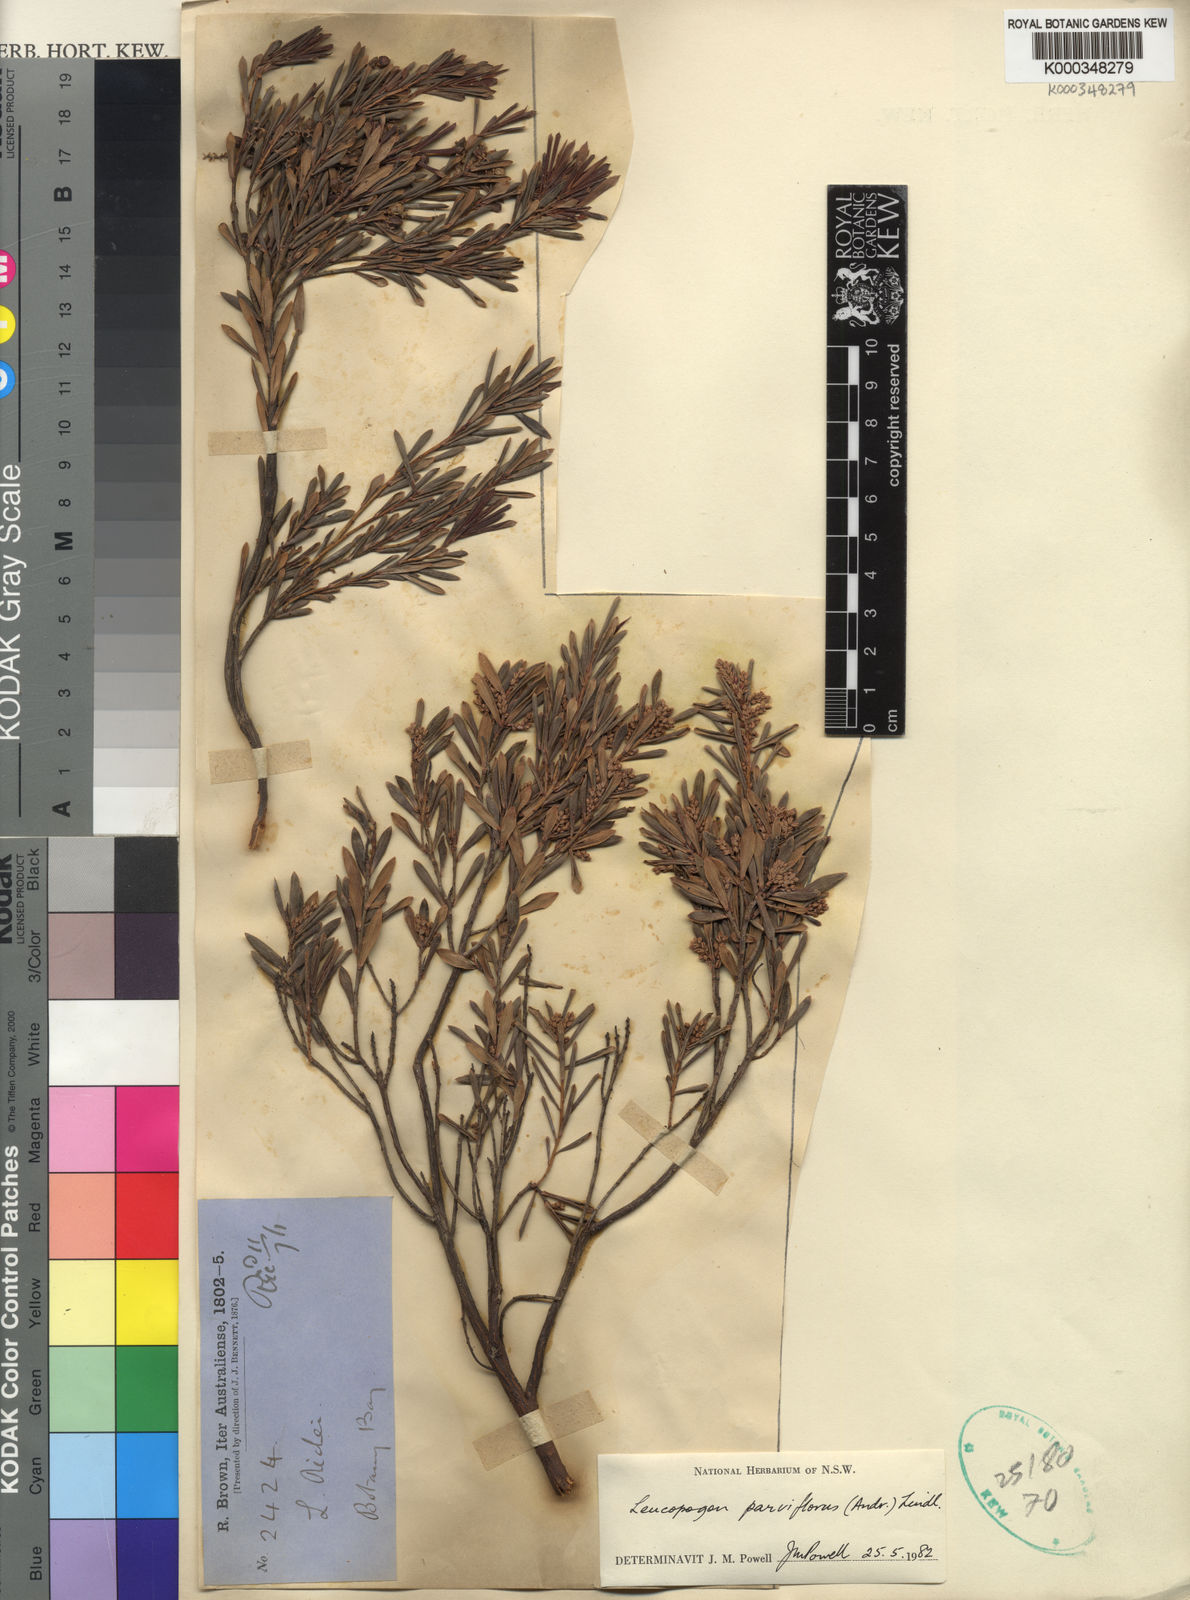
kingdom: Plantae
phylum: Tracheophyta
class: Magnoliopsida
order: Ericales
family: Ericaceae
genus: Leptecophylla
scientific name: Leptecophylla parvifolia
